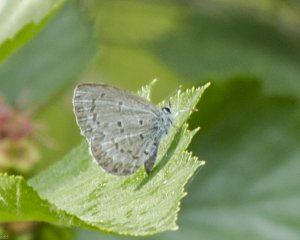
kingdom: Animalia
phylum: Arthropoda
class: Insecta
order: Lepidoptera
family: Lycaenidae
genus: Celastrina
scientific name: Celastrina serotina
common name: Cherry Gall Azure
